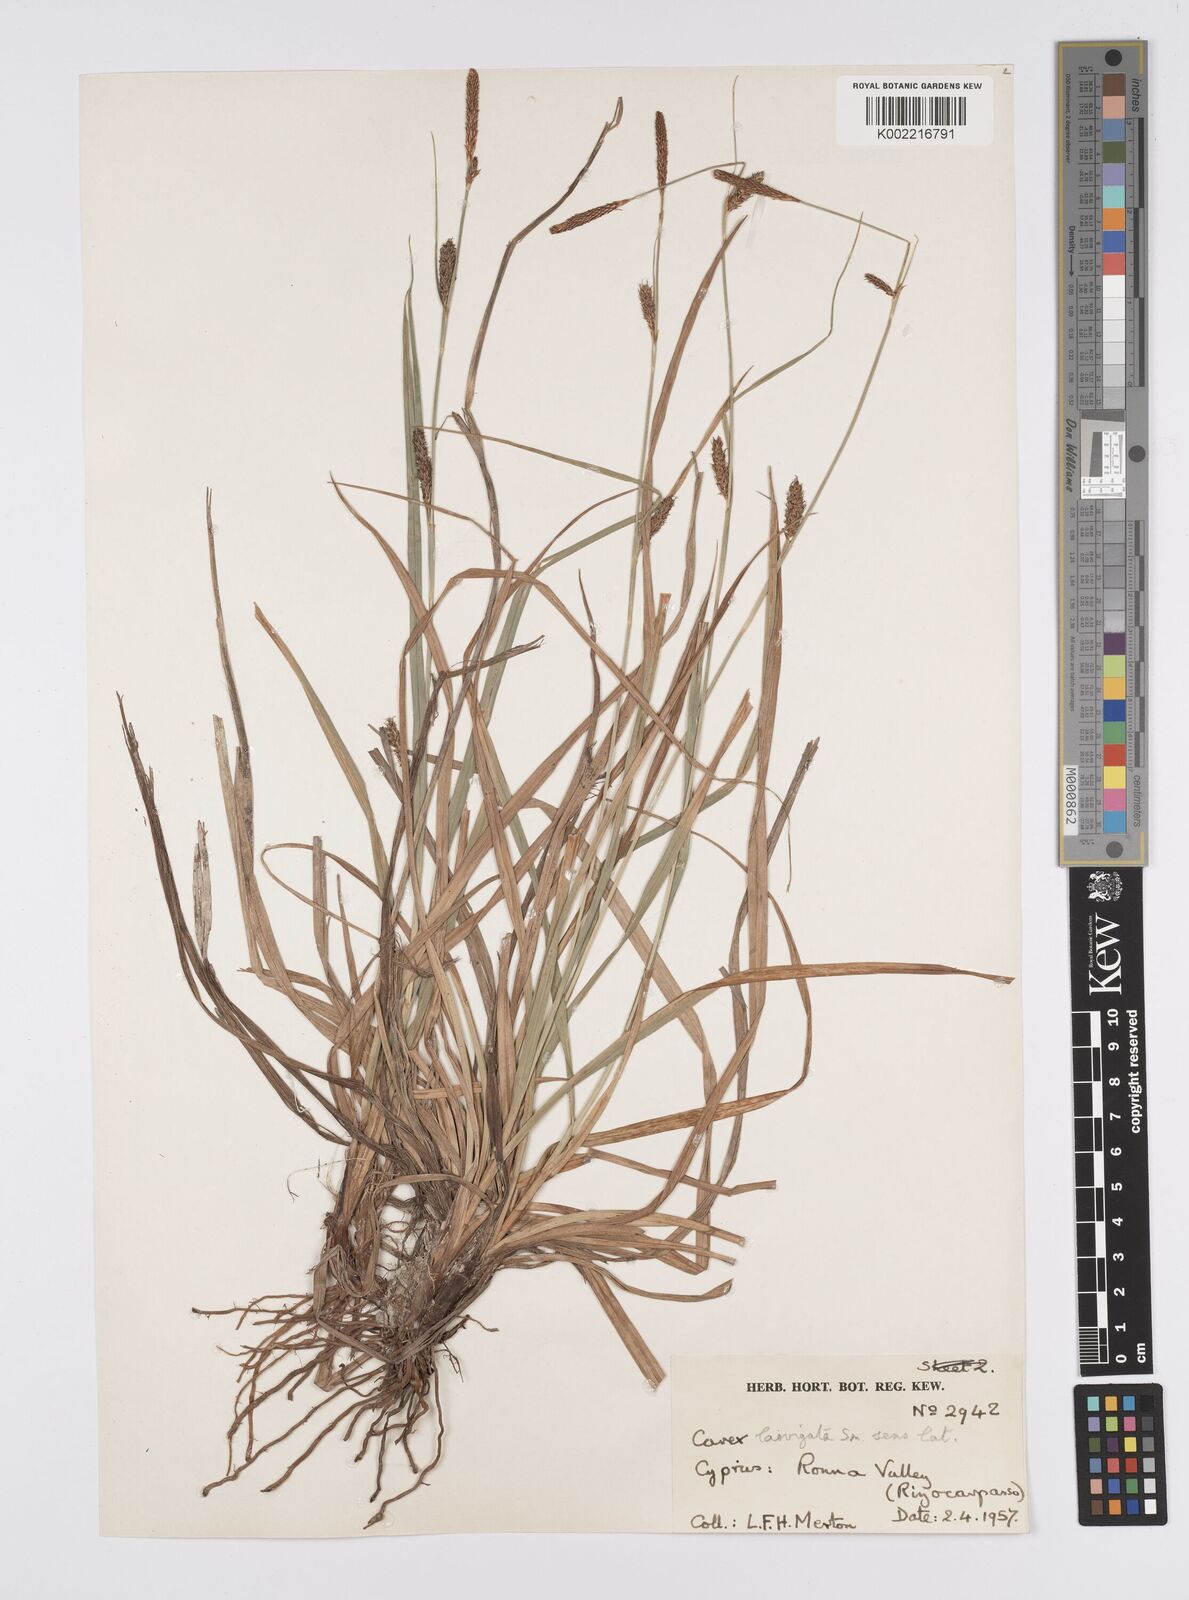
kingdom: Plantae
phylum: Tracheophyta
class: Liliopsida
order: Poales
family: Cyperaceae
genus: Carex
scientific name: Carex laevigata
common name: Smooth-stalked sedge
